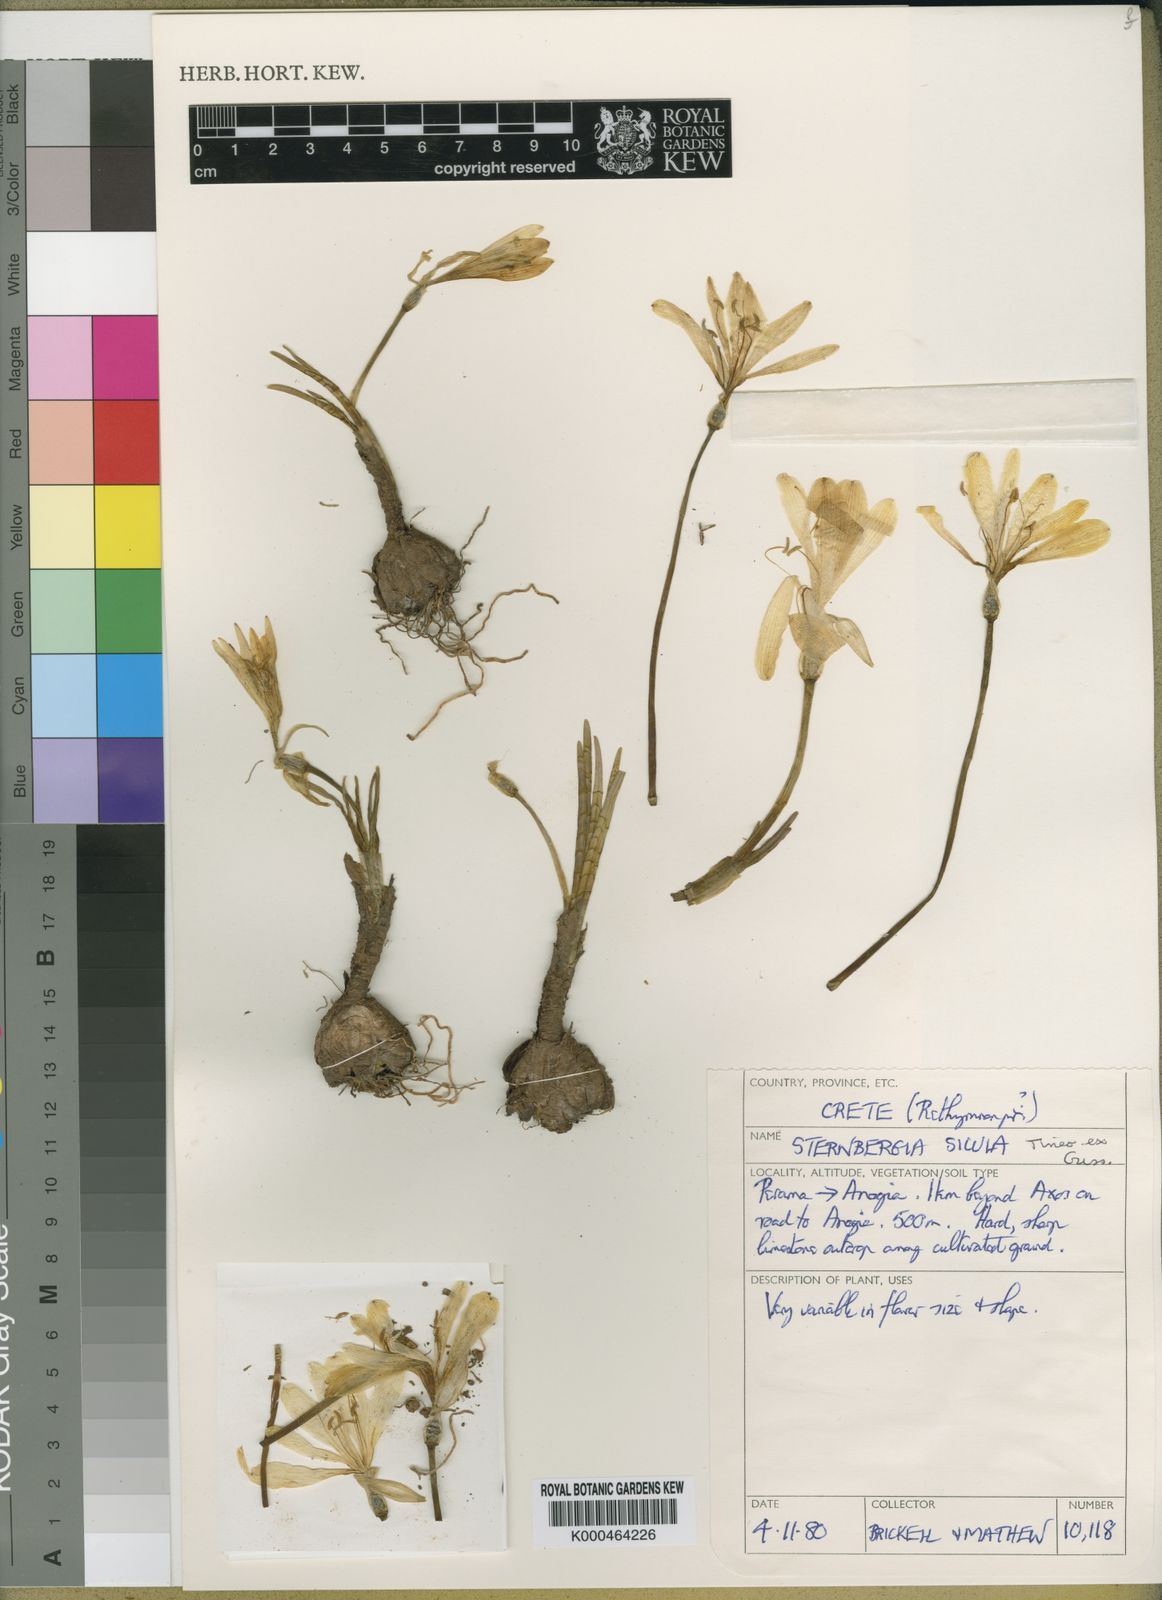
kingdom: Plantae
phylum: Tracheophyta
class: Liliopsida
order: Asparagales
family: Amaryllidaceae
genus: Sternbergia
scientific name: Sternbergia
